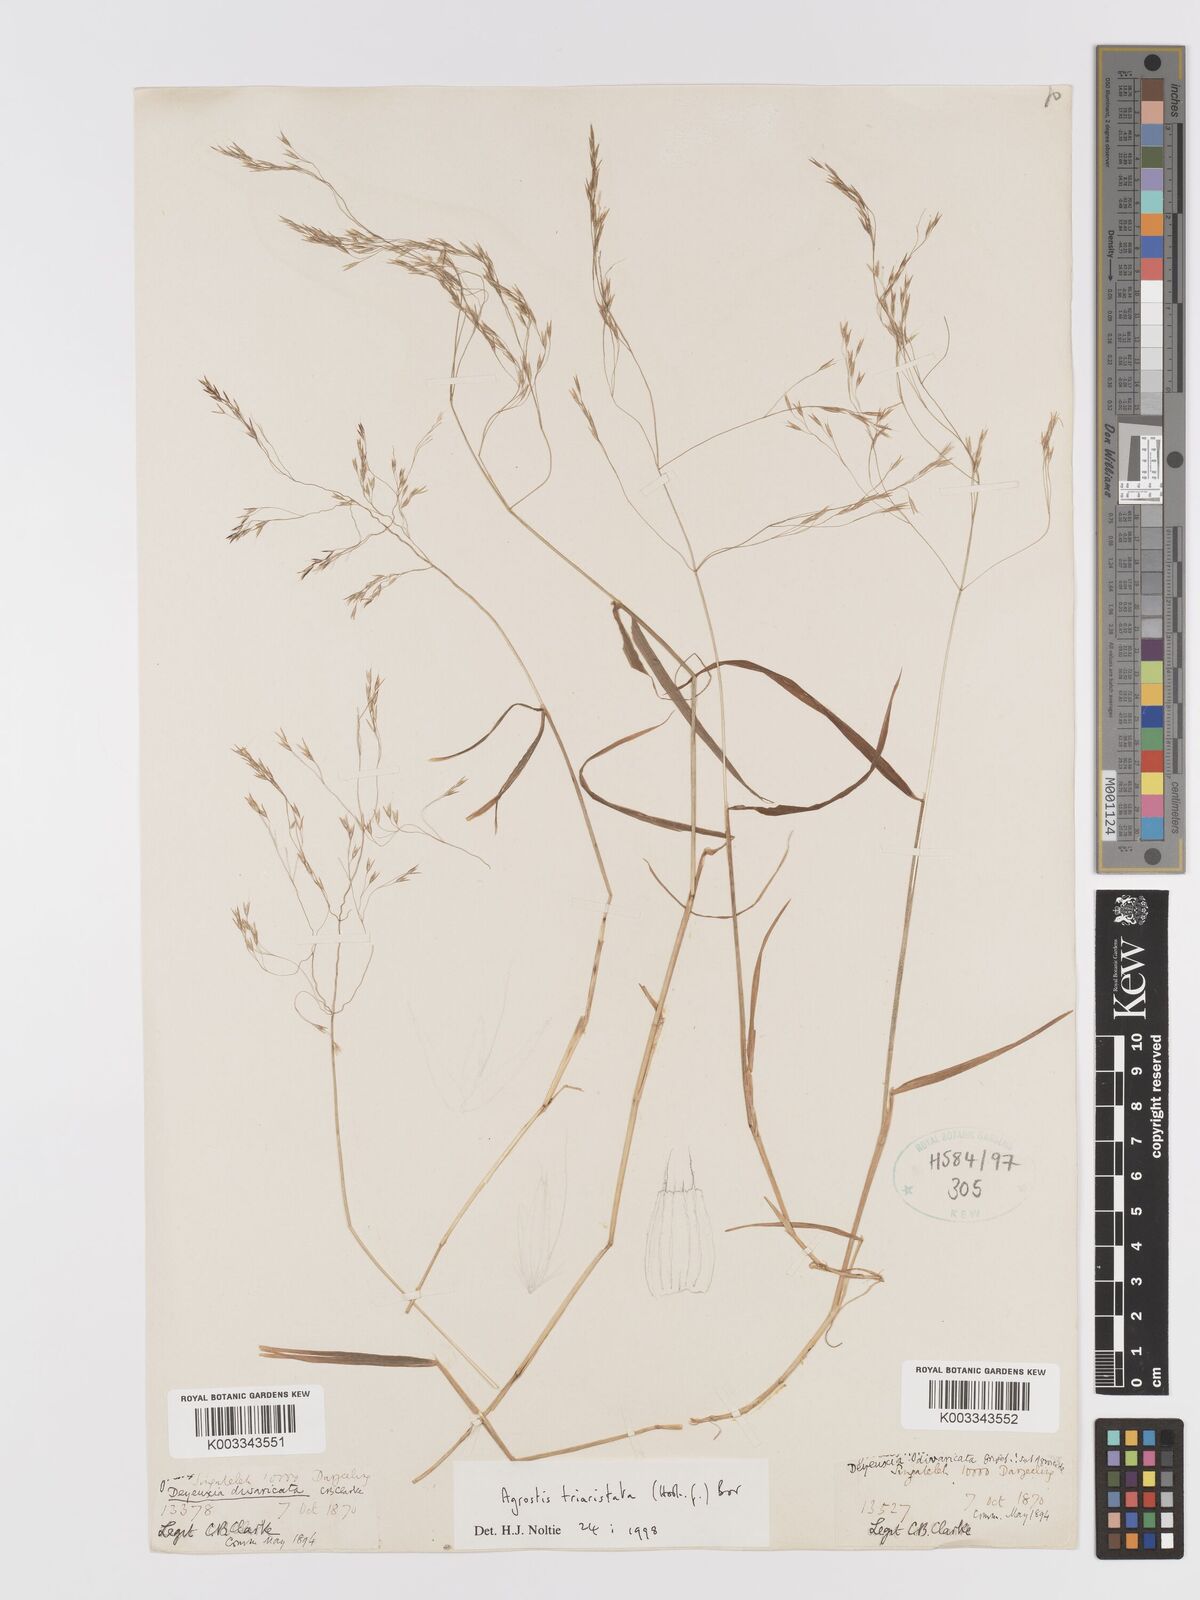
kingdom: Plantae
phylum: Tracheophyta
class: Liliopsida
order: Poales
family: Poaceae
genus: Agrostis
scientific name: Agrostis
